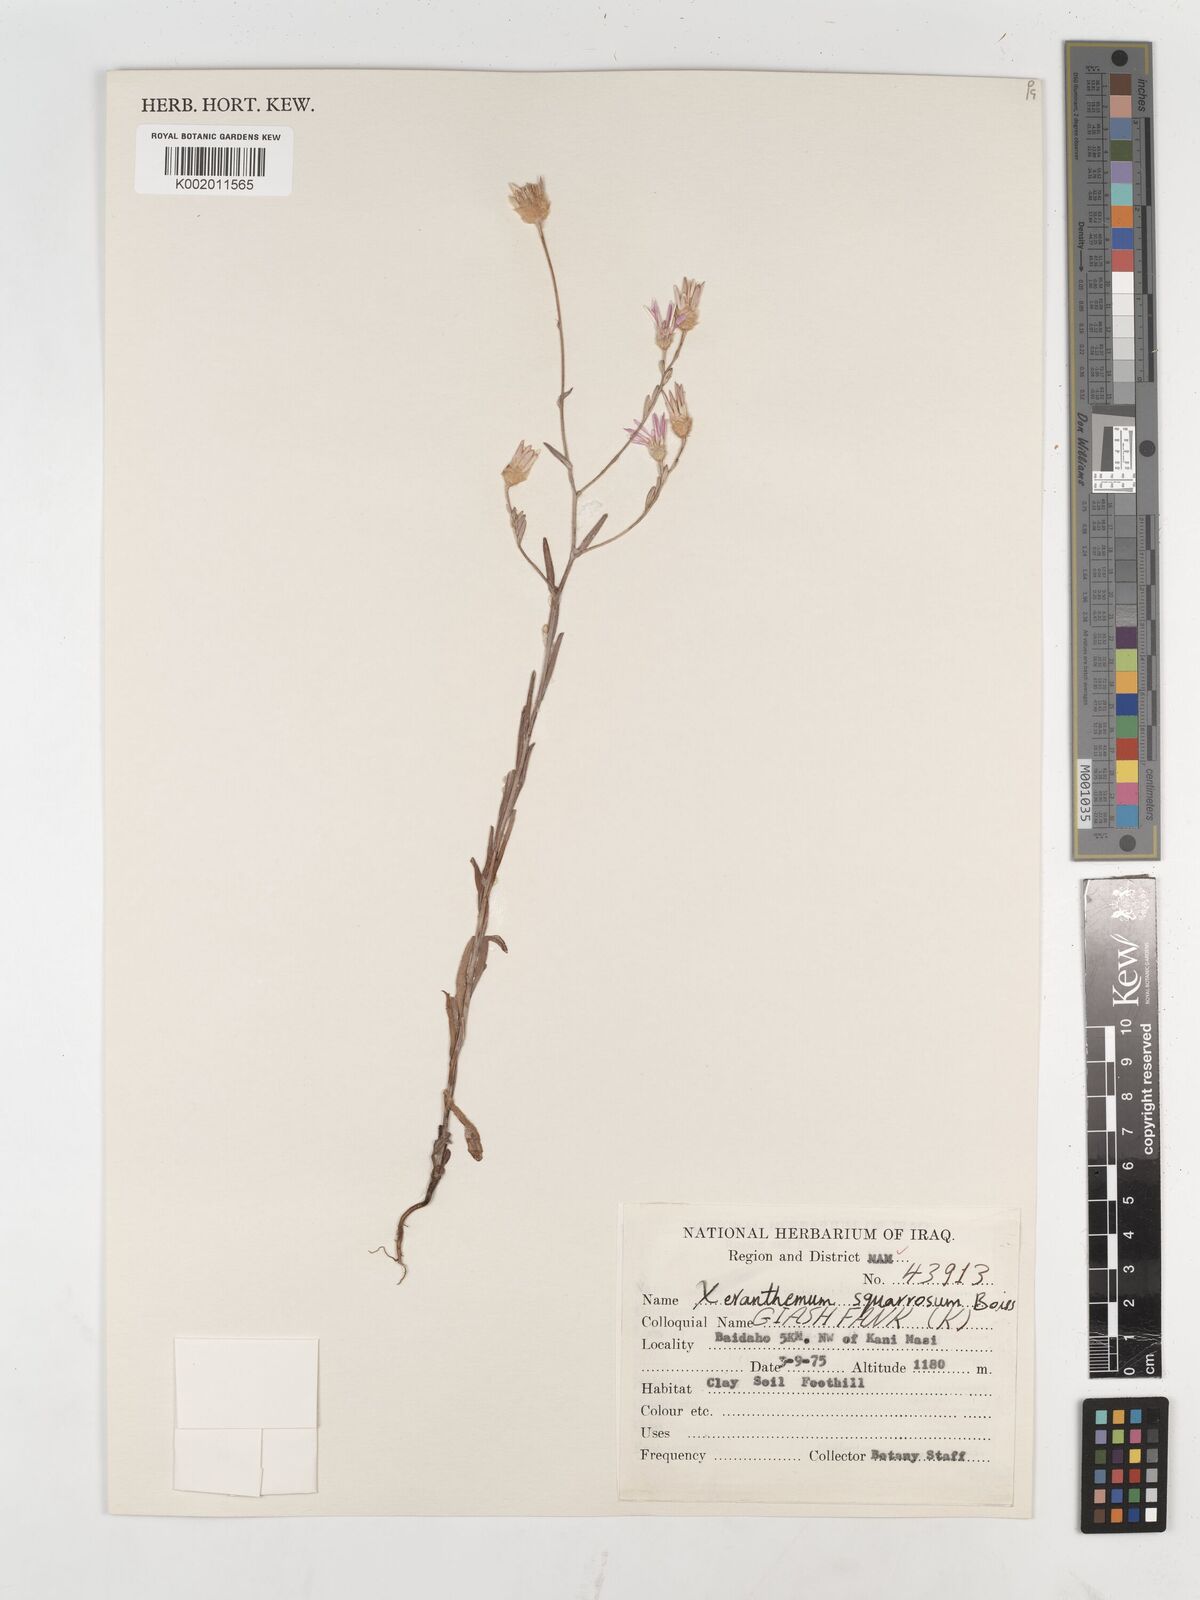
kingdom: Plantae
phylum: Tracheophyta
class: Magnoliopsida
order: Asterales
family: Asteraceae
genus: Xeranthemum
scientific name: Xeranthemum annuum
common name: Immortelle
